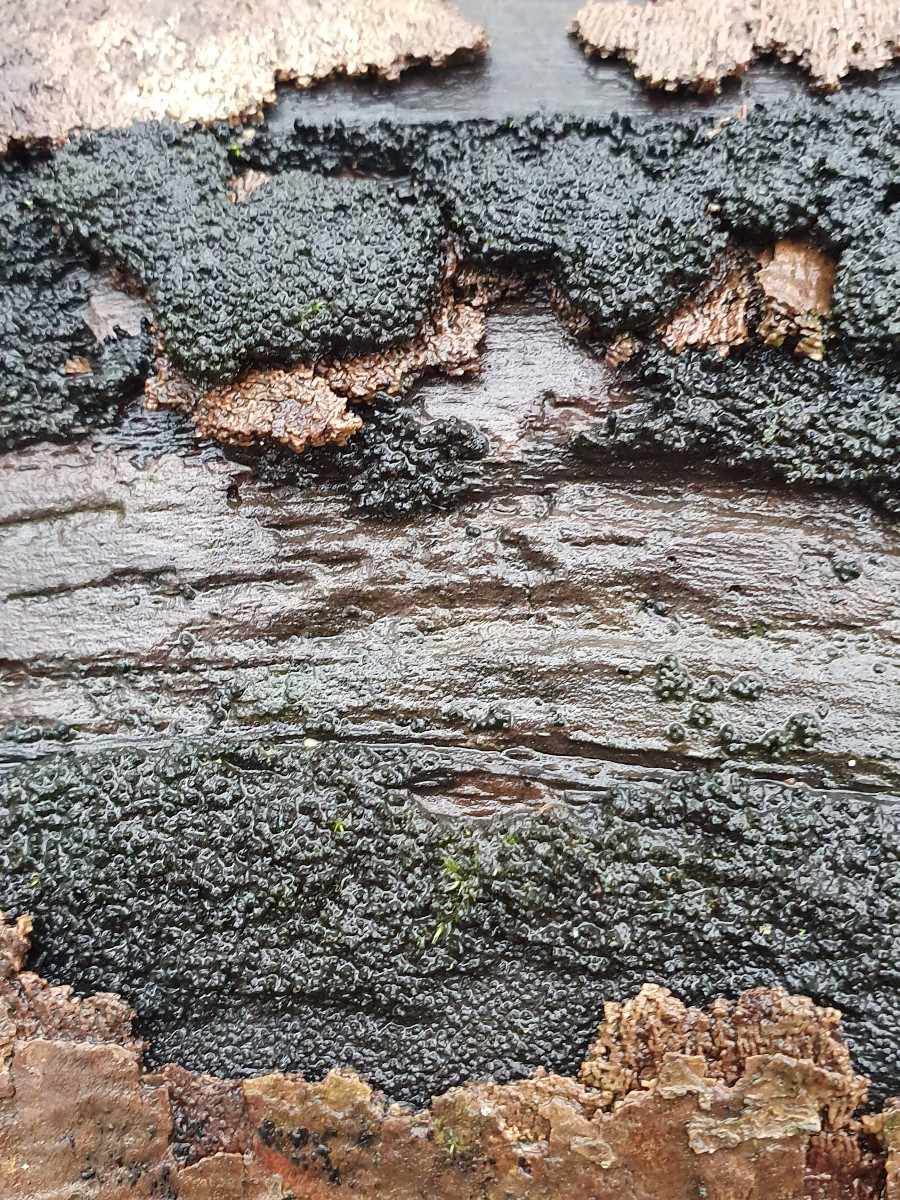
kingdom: Fungi
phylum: Ascomycota
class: Sordariomycetes
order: Xylariales
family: Diatrypaceae
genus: Eutypa
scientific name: Eutypa spinosa
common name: grov kulskorpe
